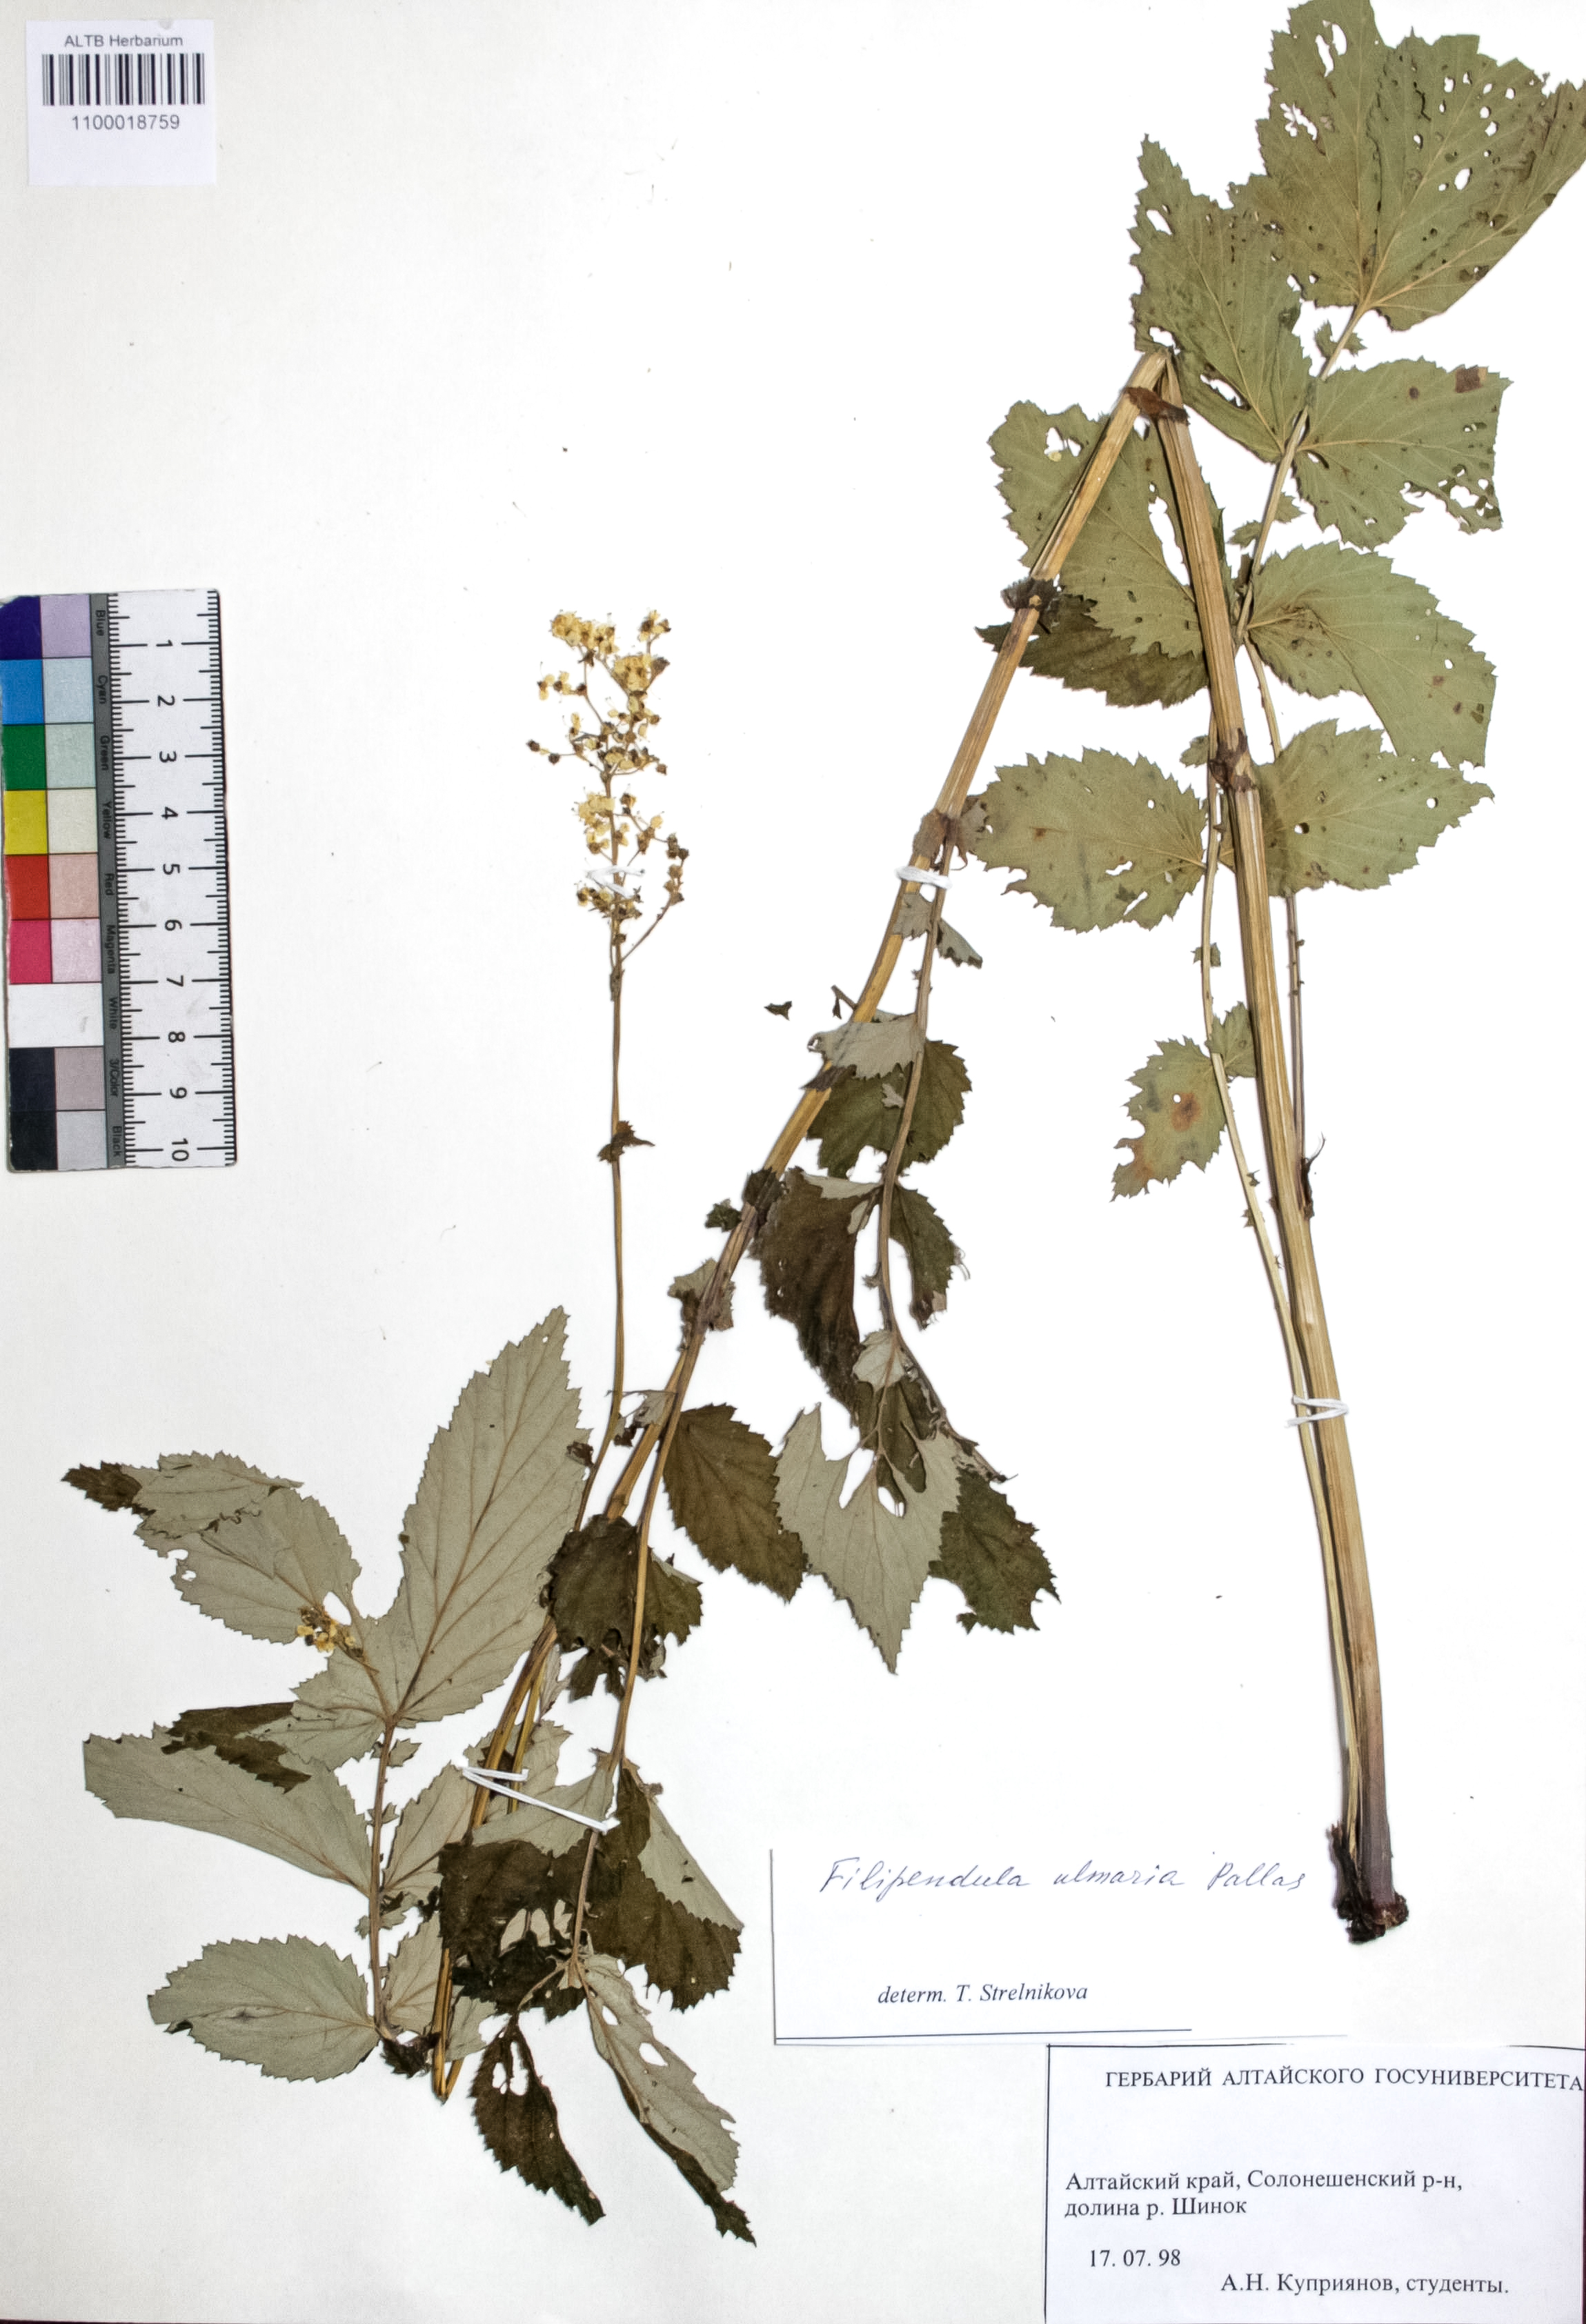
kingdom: Plantae
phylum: Tracheophyta
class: Magnoliopsida
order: Rosales
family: Rosaceae
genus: Filipendula
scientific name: Filipendula ulmaria
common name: Meadowsweet
